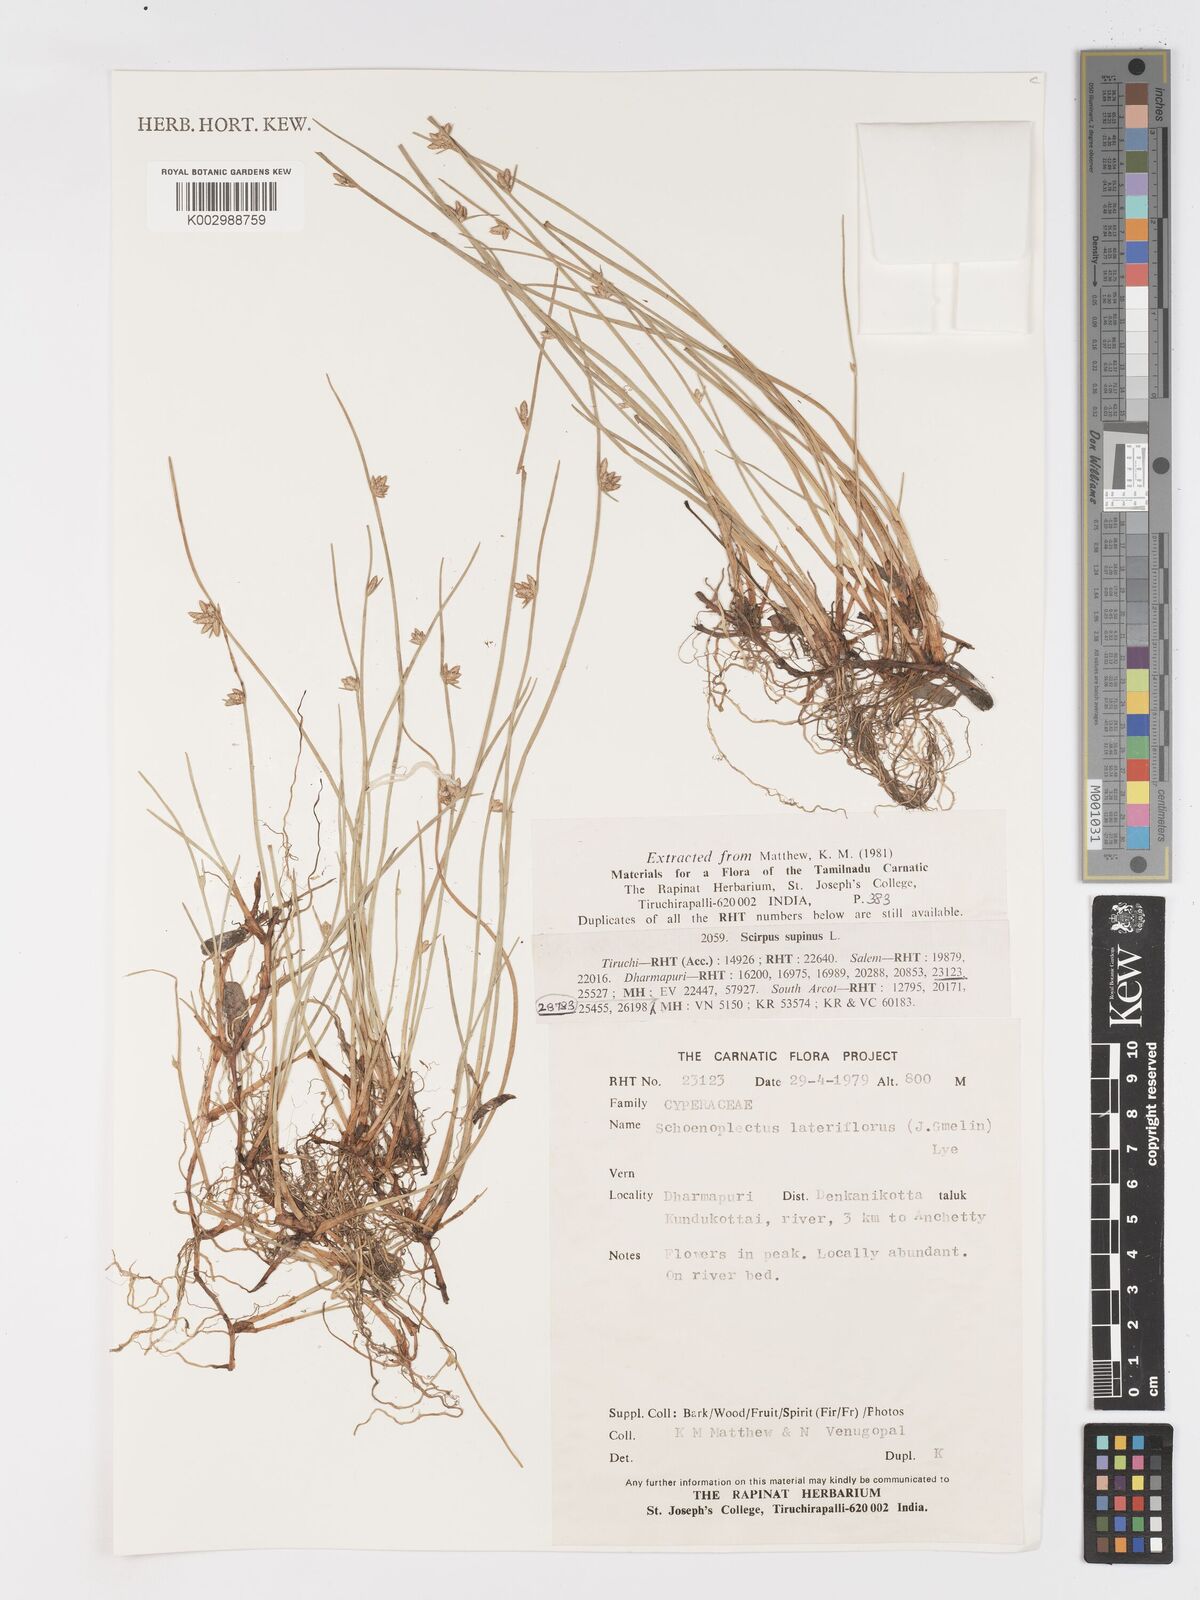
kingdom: Plantae
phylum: Tracheophyta
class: Liliopsida
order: Poales
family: Cyperaceae
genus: Schoenoplectus
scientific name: Schoenoplectus litoralis
